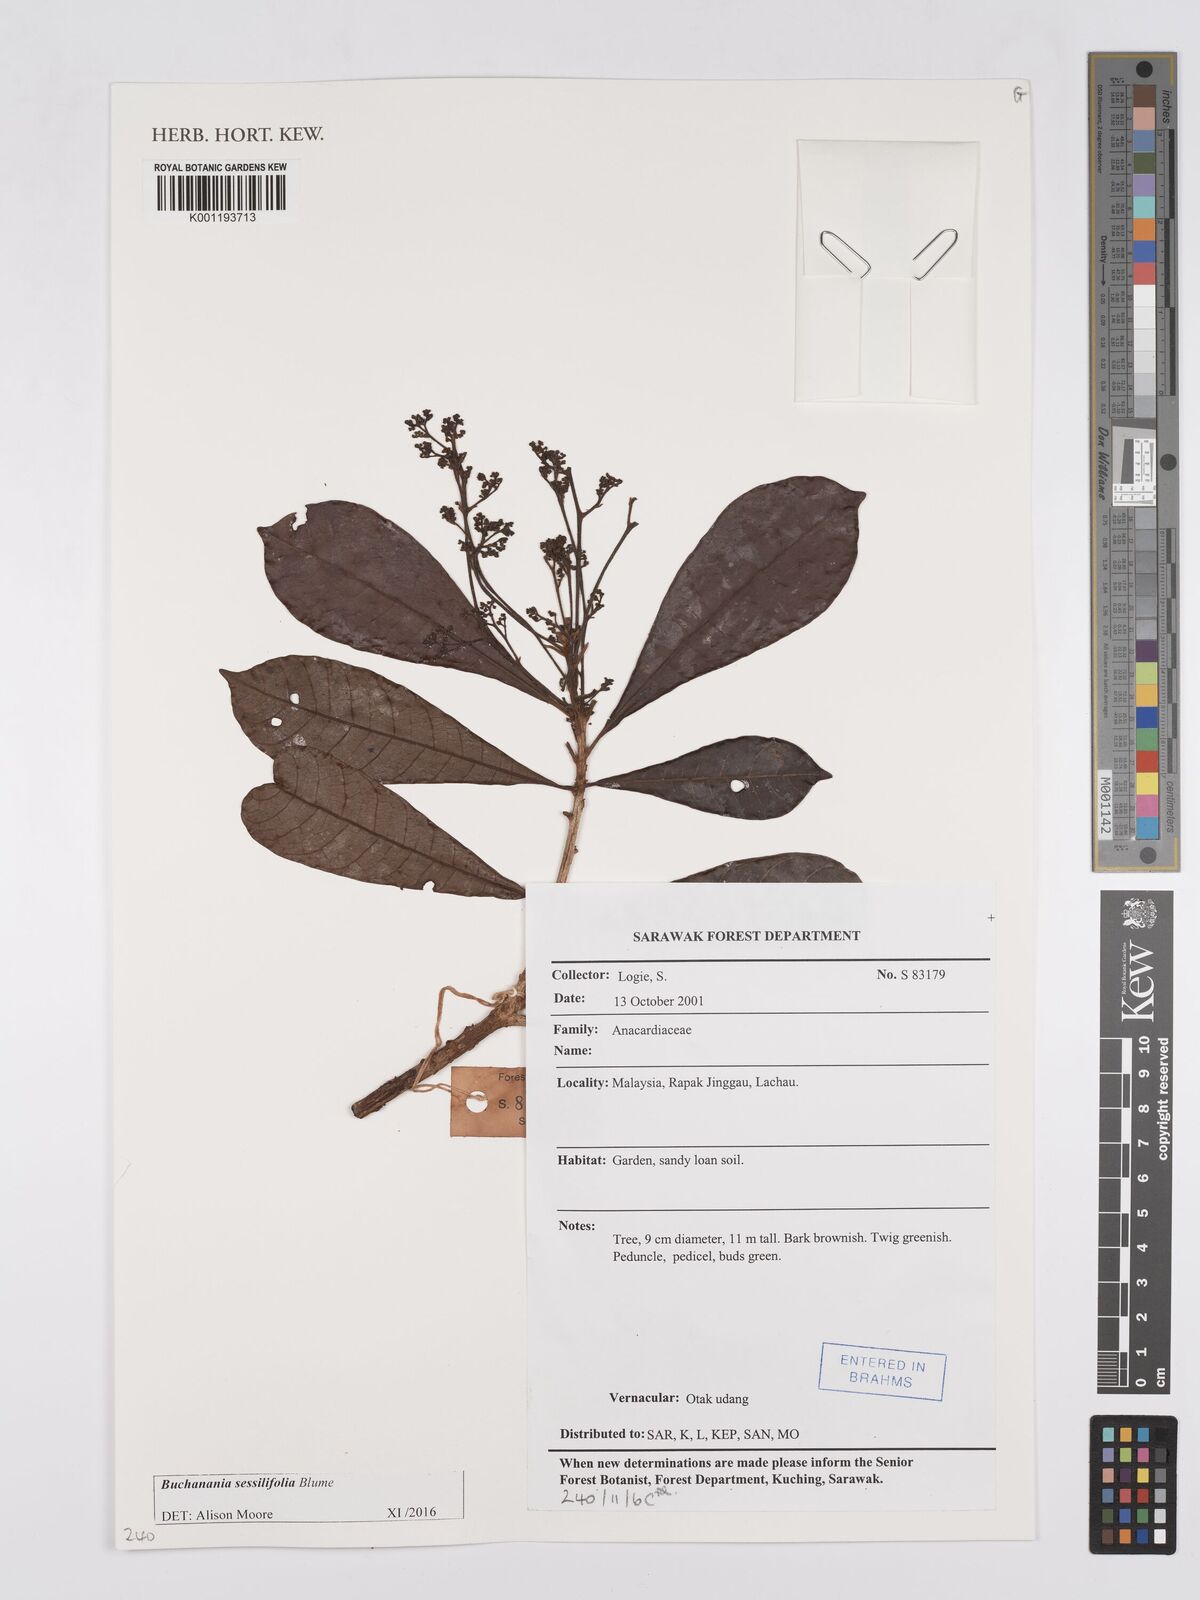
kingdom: Plantae
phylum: Tracheophyta
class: Magnoliopsida
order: Sapindales
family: Anacardiaceae
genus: Buchanania
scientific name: Buchanania sessifolia
